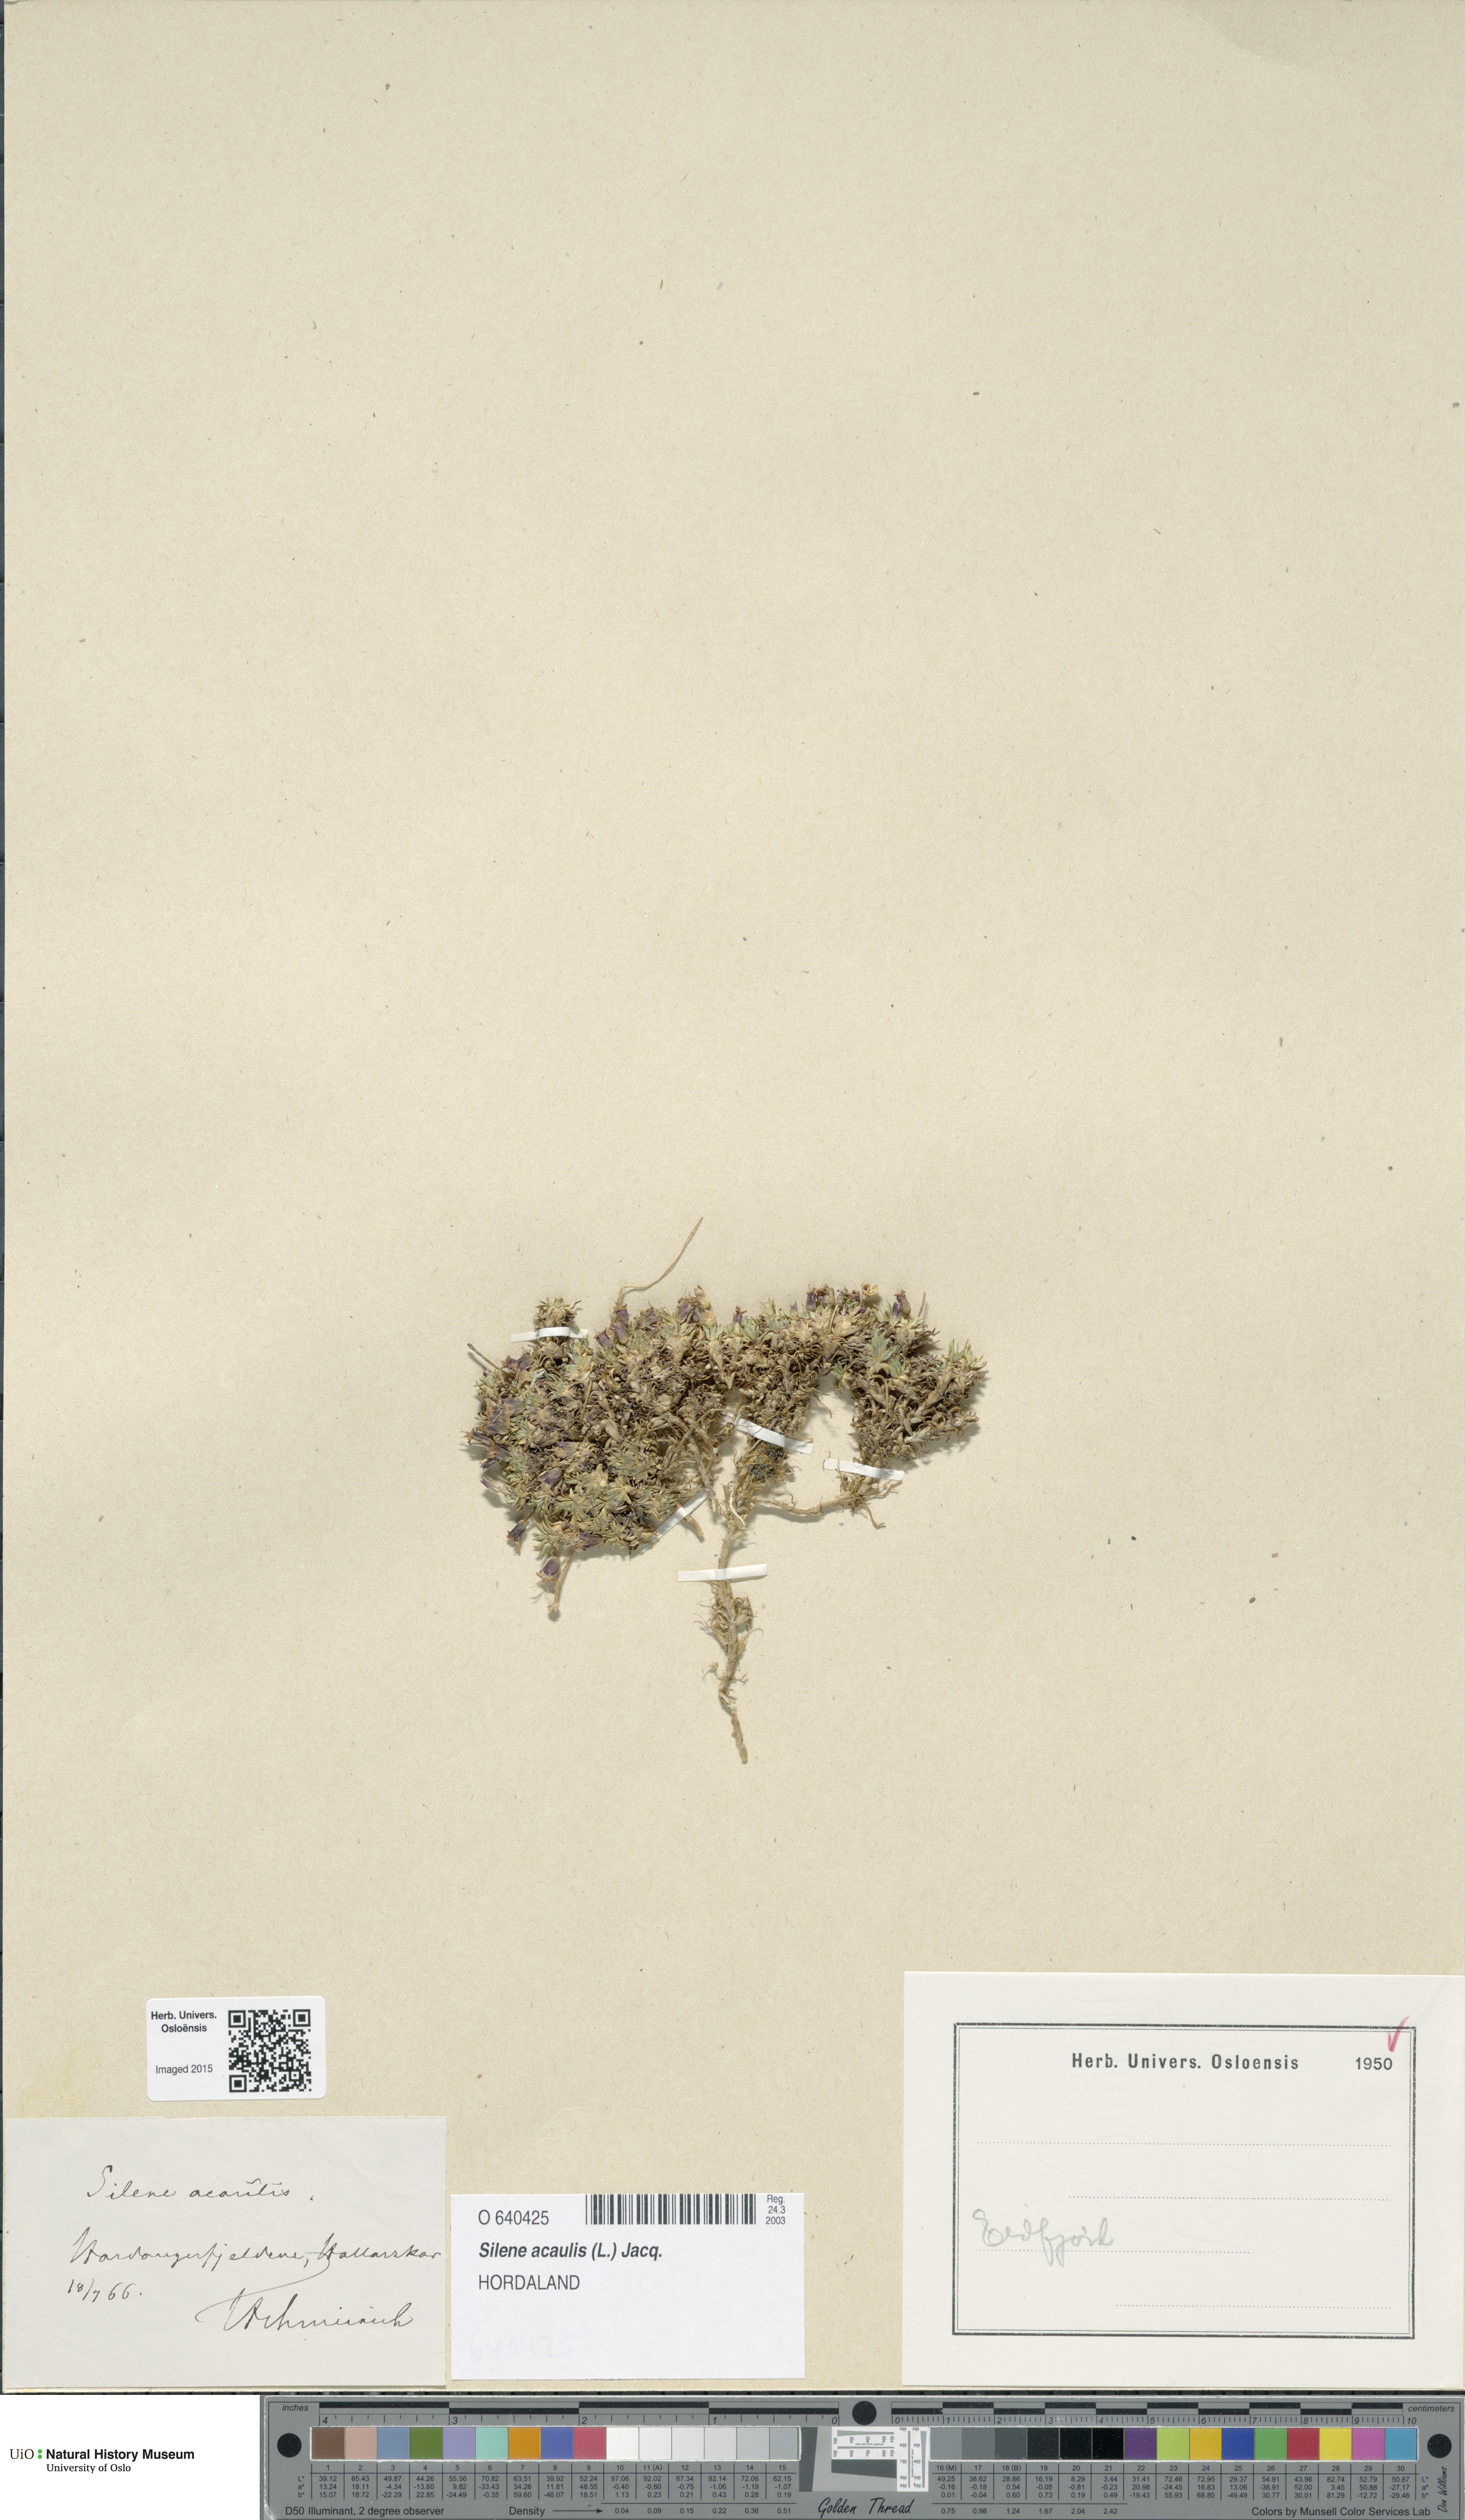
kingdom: Plantae
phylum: Tracheophyta
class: Magnoliopsida
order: Caryophyllales
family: Caryophyllaceae
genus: Silene
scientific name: Silene acaulis
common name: Moss campion
